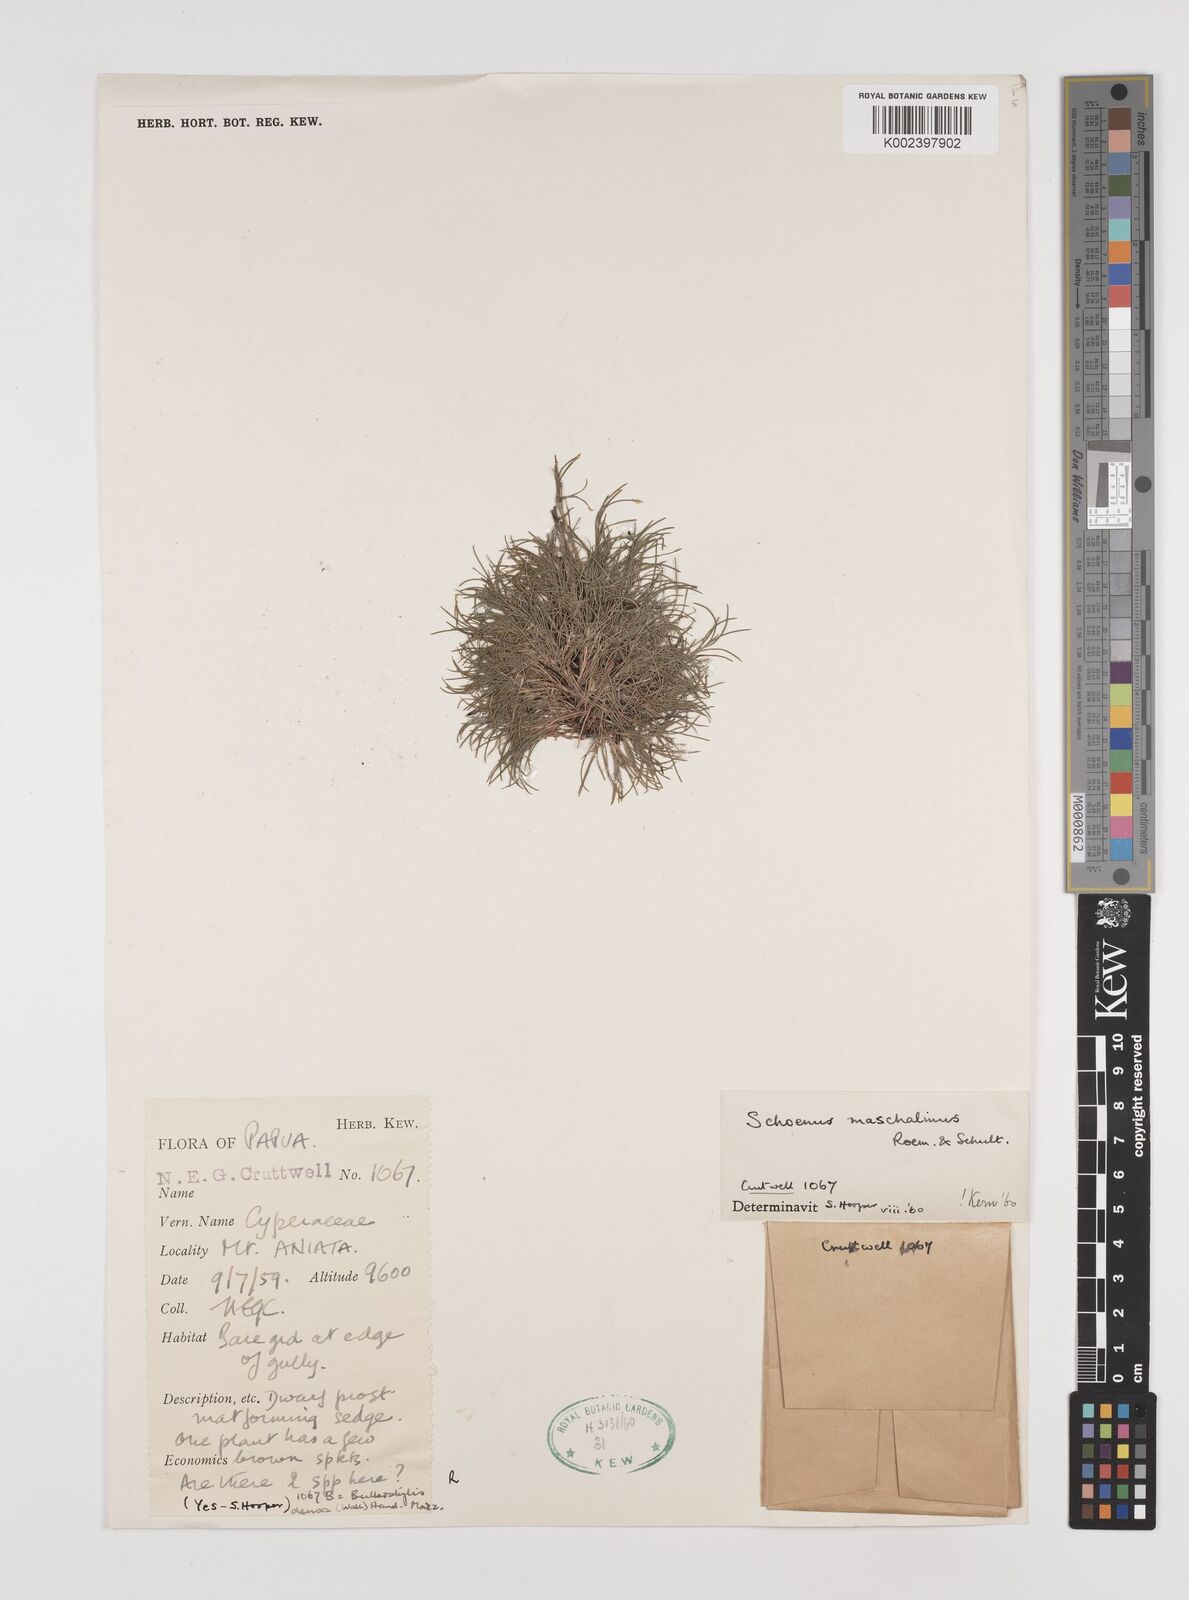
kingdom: Plantae
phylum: Tracheophyta
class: Liliopsida
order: Poales
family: Cyperaceae
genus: Schoenus
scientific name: Schoenus maschalinus
